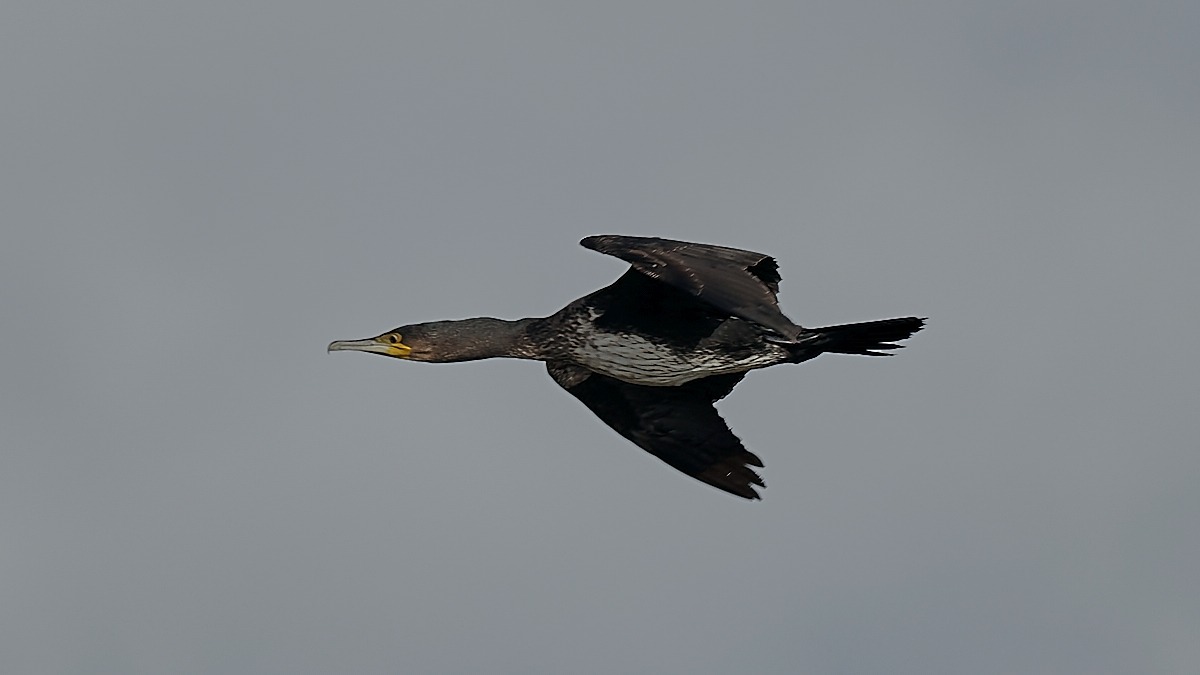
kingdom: Animalia
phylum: Chordata
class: Aves
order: Suliformes
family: Phalacrocoracidae
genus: Phalacrocorax
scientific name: Phalacrocorax carbo
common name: Skarv
